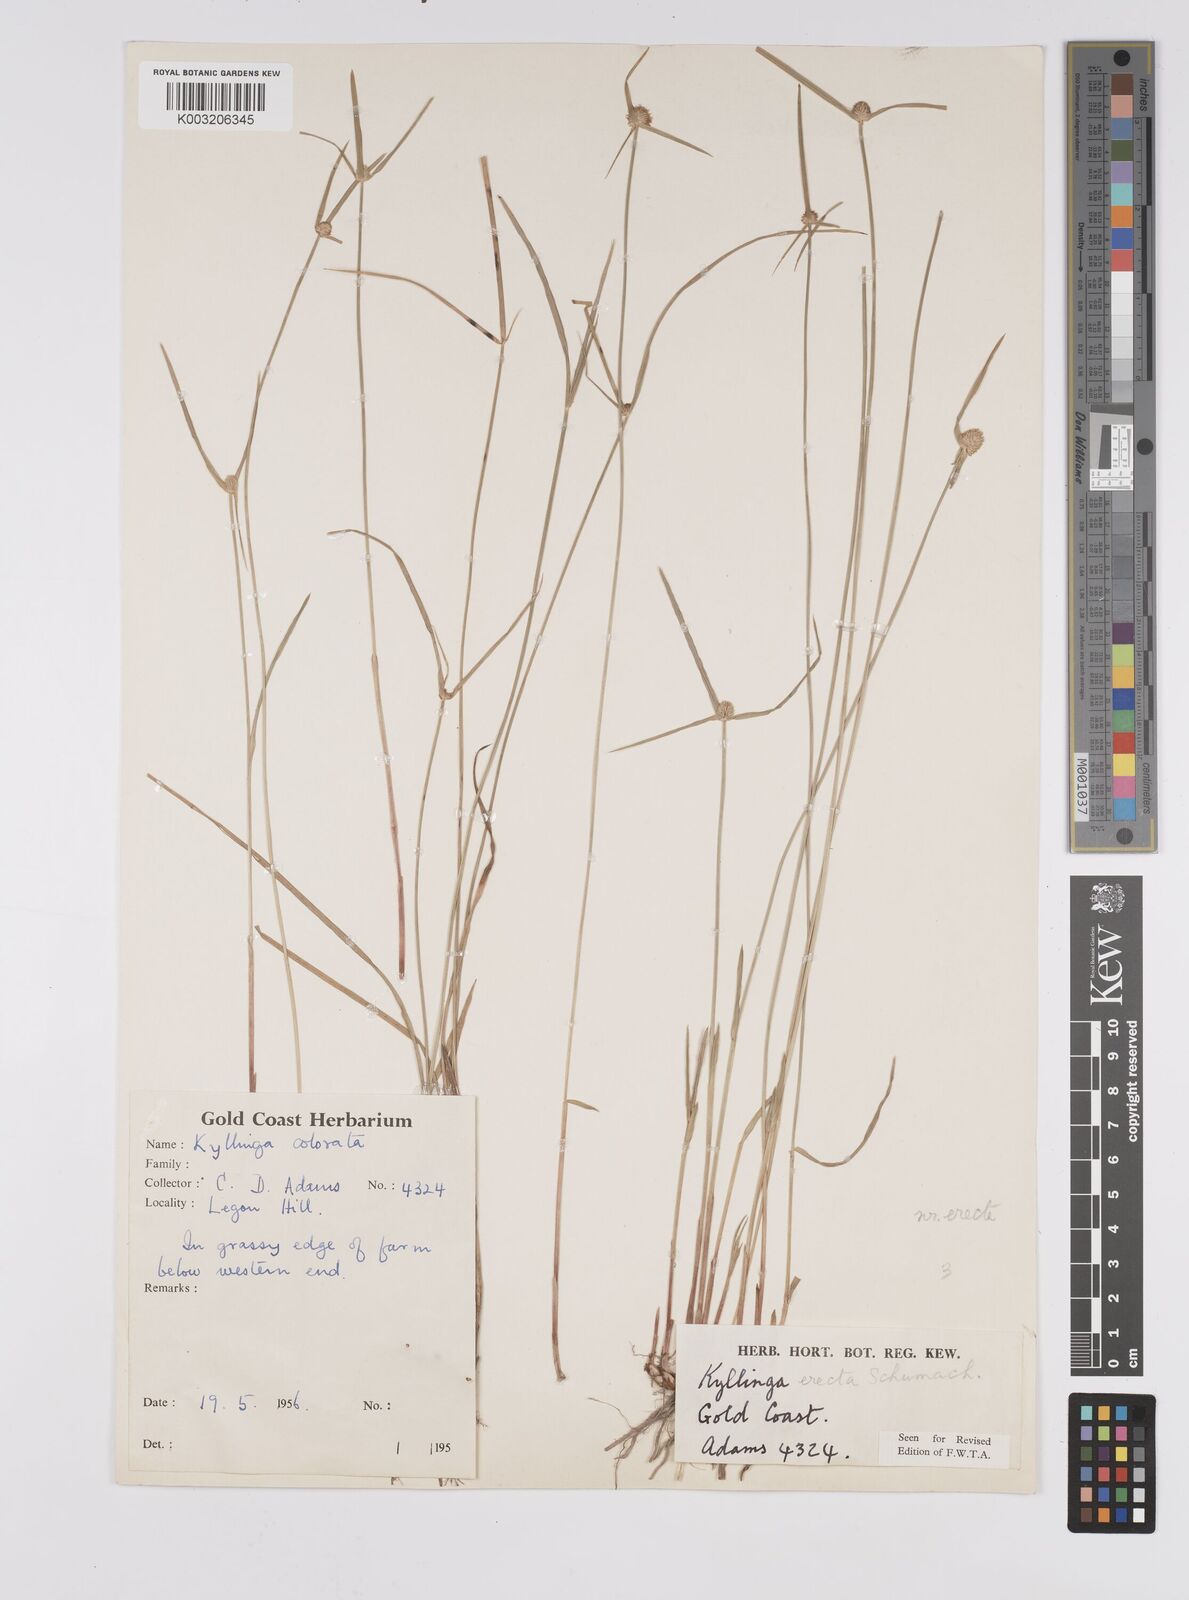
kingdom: Plantae
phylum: Tracheophyta
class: Liliopsida
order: Poales
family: Cyperaceae
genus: Cyperus
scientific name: Cyperus erectus
